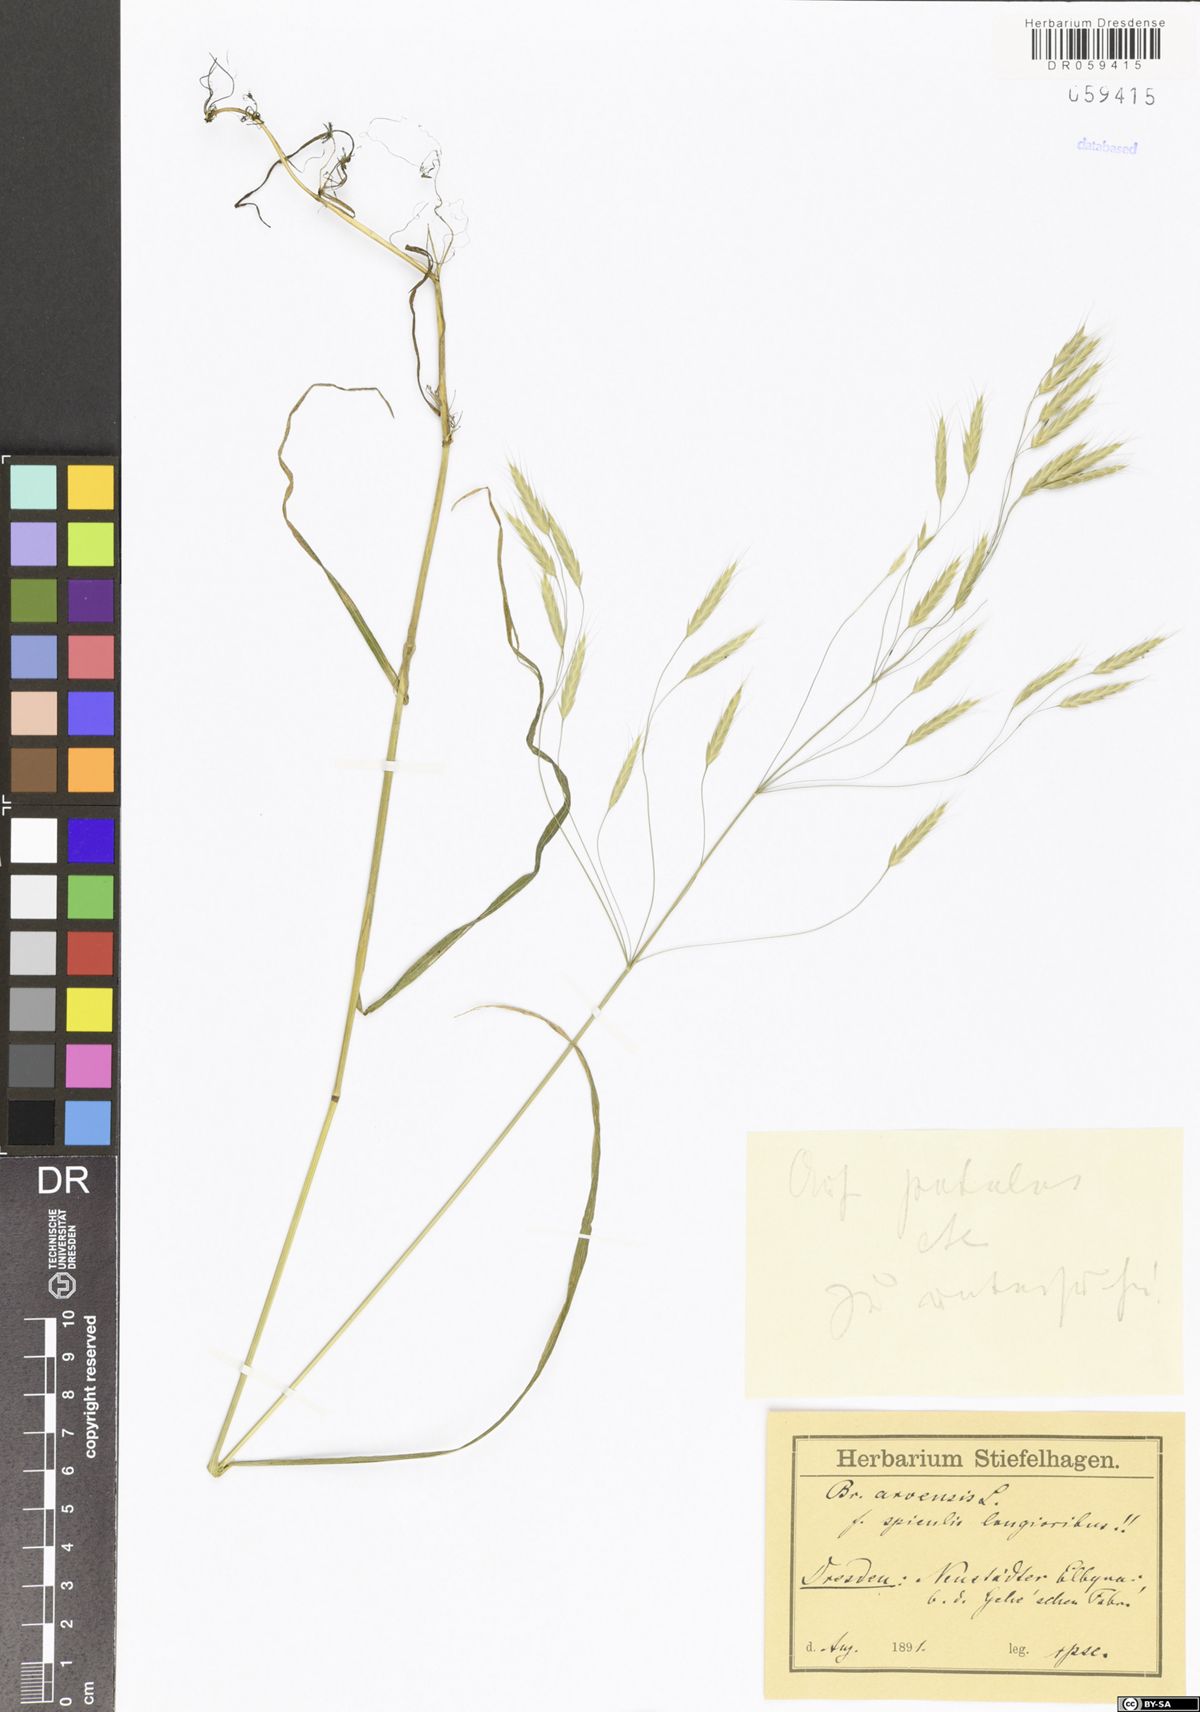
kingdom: Plantae
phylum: Tracheophyta
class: Liliopsida
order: Poales
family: Poaceae
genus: Bromus
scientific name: Bromus arvensis
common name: Field brome
